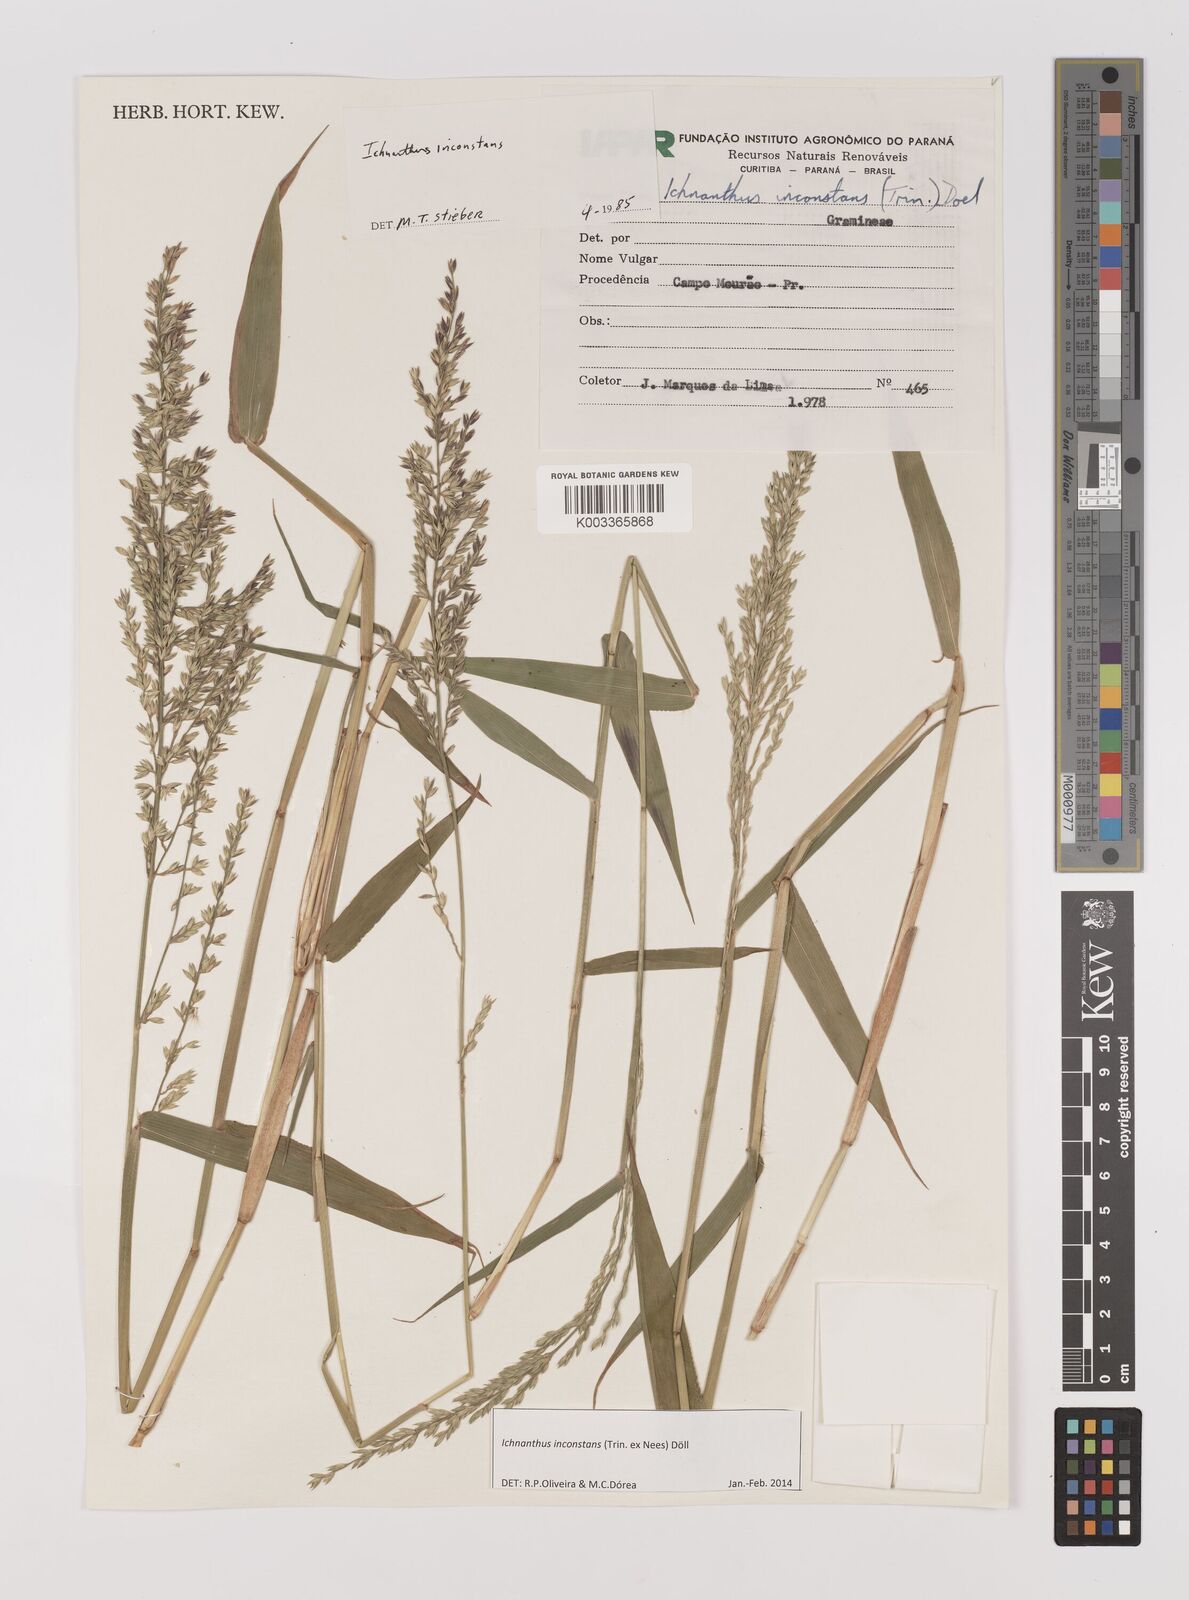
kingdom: Plantae
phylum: Tracheophyta
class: Liliopsida
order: Poales
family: Poaceae
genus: Ichnanthus
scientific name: Ichnanthus inconstans
